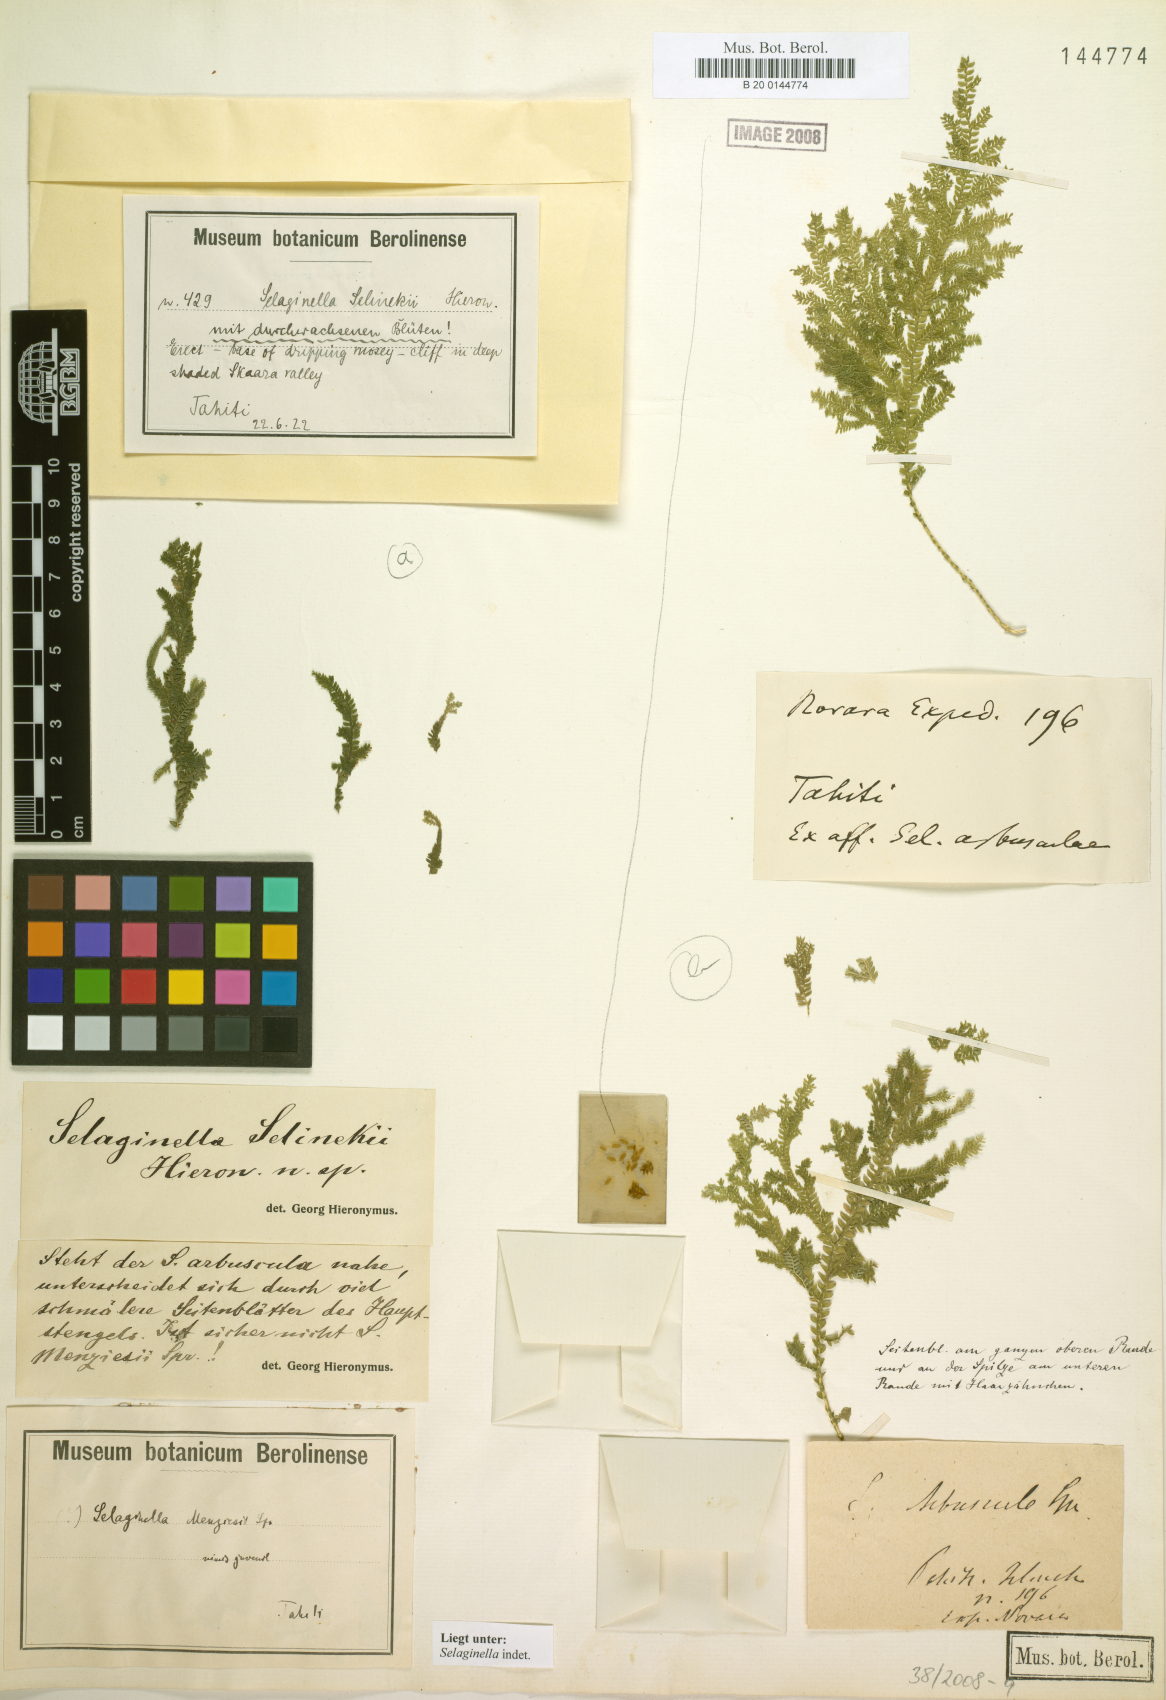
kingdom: Plantae
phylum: Tracheophyta
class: Lycopodiopsida
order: Selaginellales
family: Selaginellaceae
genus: Selaginella
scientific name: Selaginella
